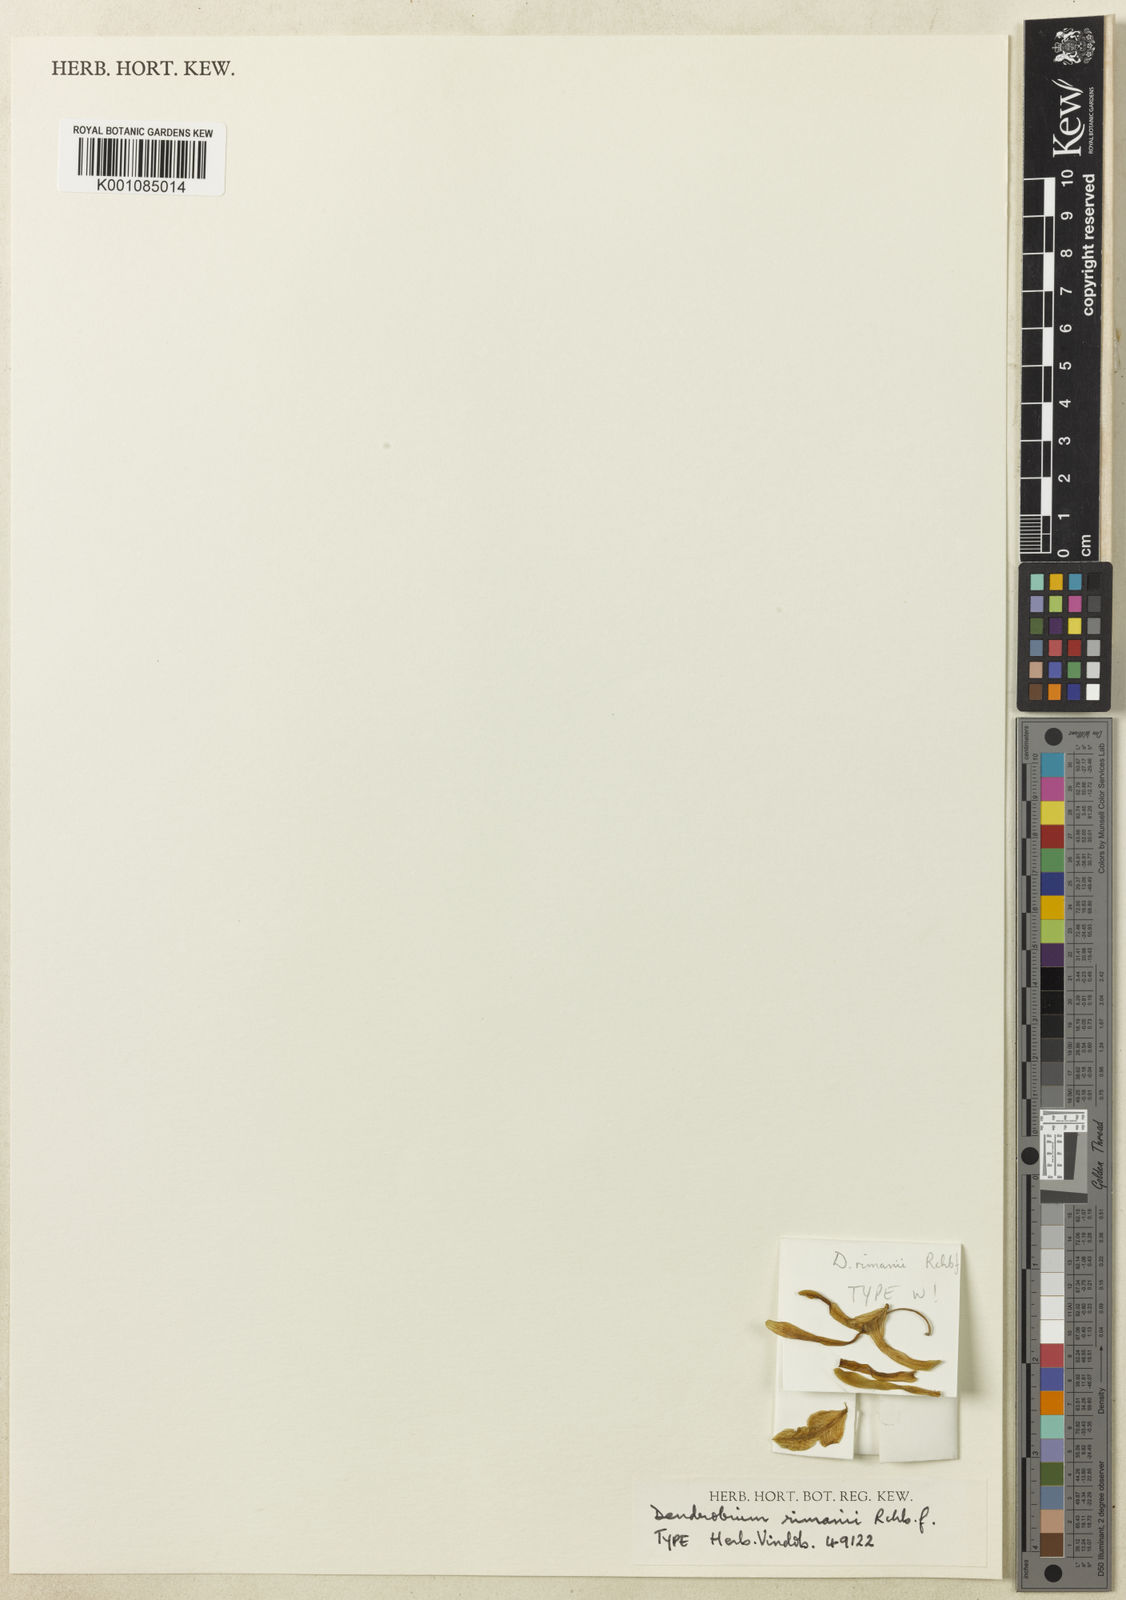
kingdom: Plantae
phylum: Tracheophyta
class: Liliopsida
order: Asparagales
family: Orchidaceae
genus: Dendrobium
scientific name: Dendrobium calophyllum
